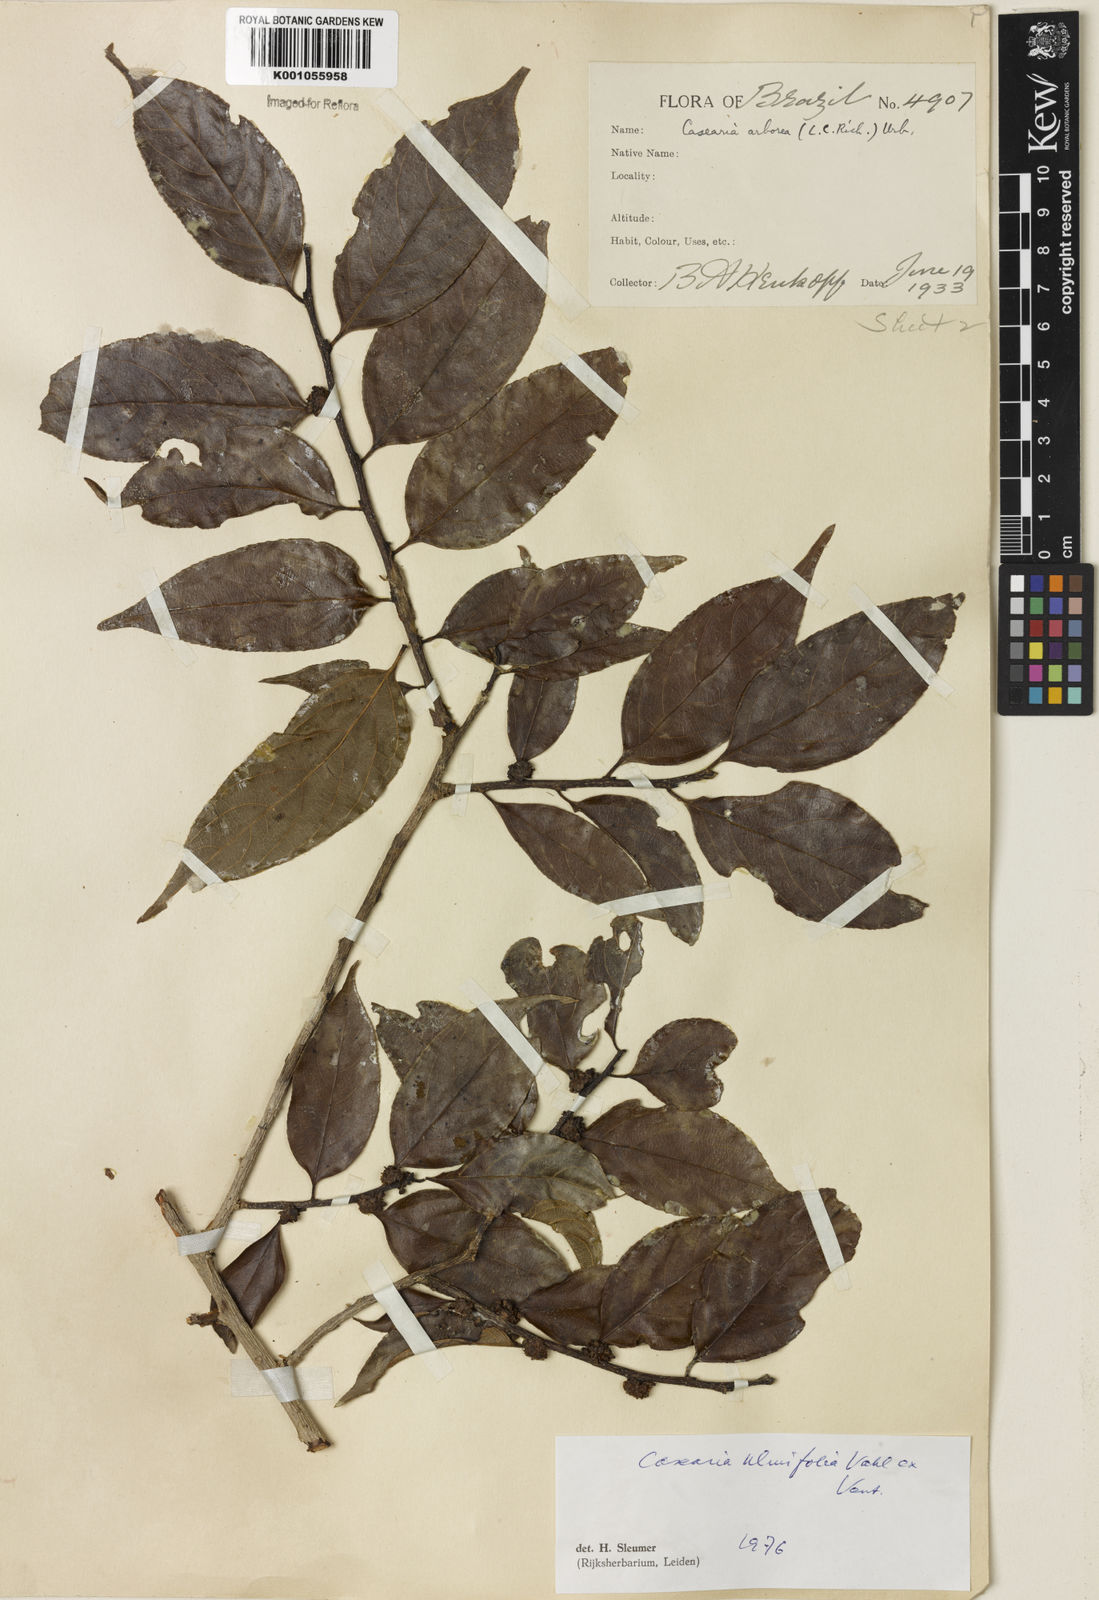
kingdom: Plantae
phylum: Tracheophyta
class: Magnoliopsida
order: Malpighiales
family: Salicaceae
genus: Casearia
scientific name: Casearia ulmifolia
